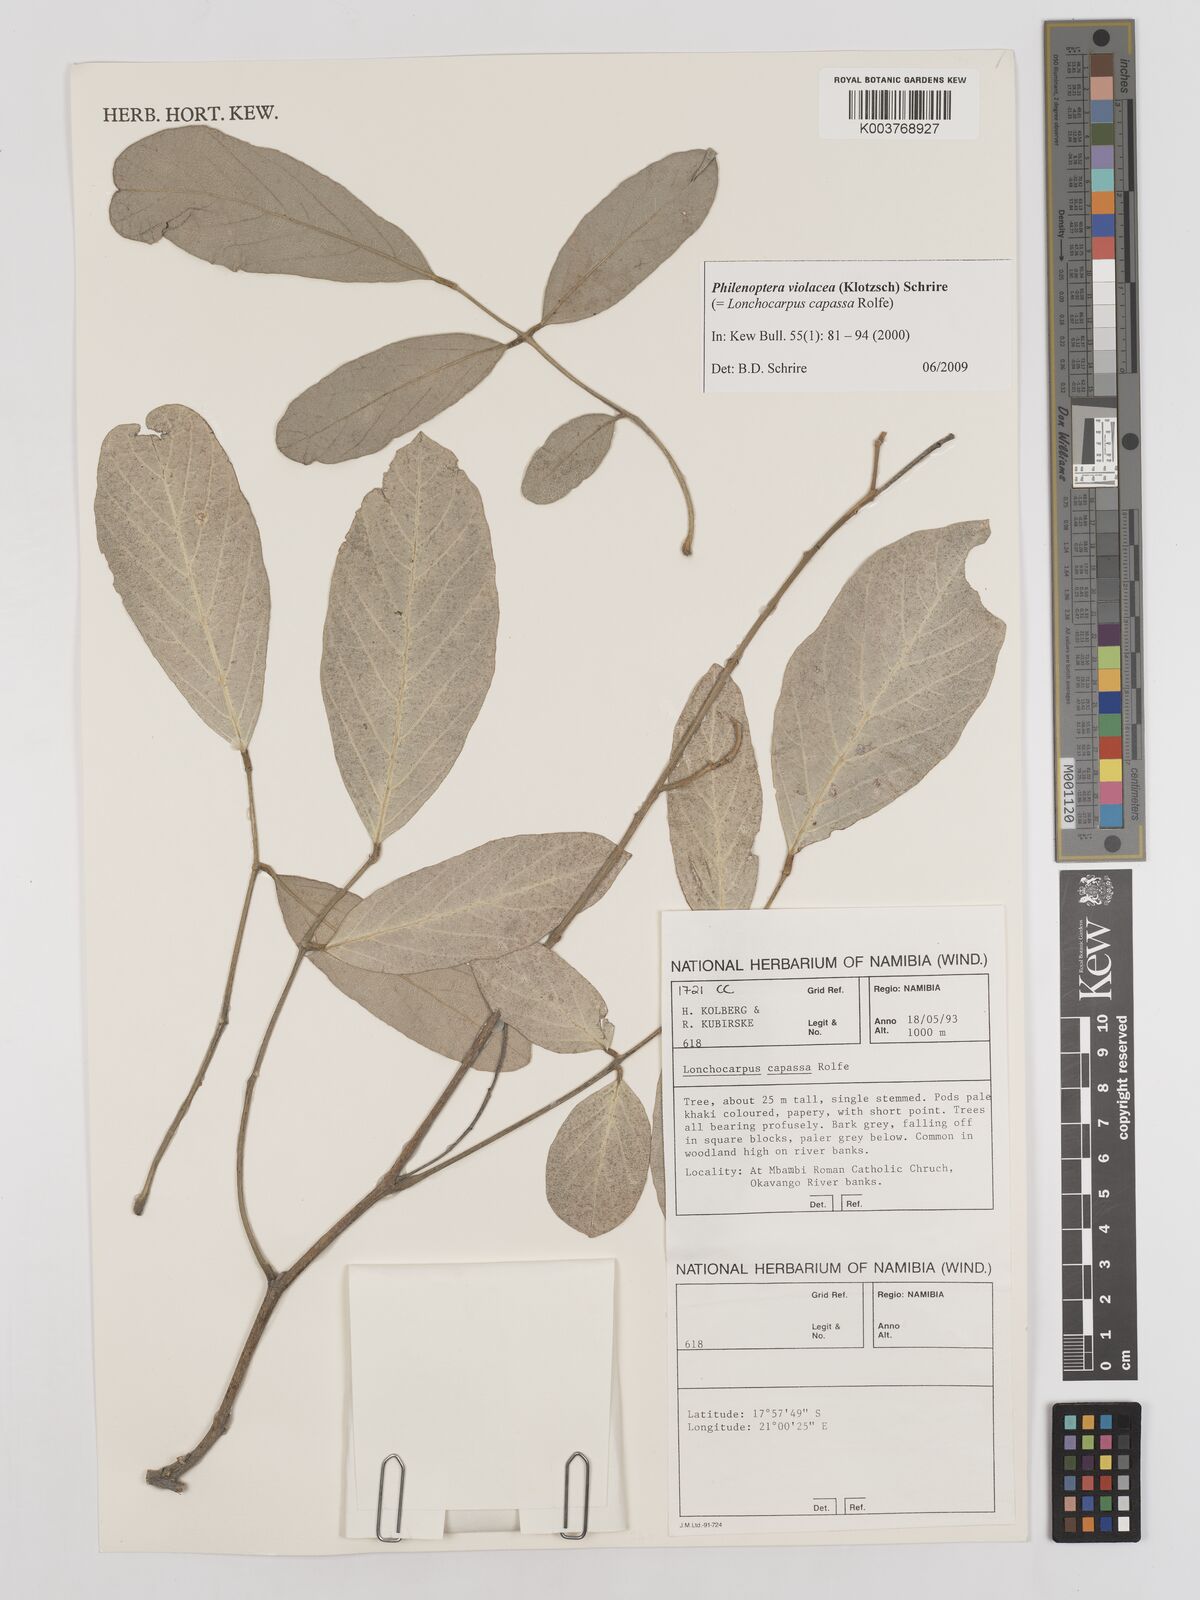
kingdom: Plantae
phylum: Tracheophyta
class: Magnoliopsida
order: Fabales
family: Fabaceae
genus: Philenoptera
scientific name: Philenoptera violacea
